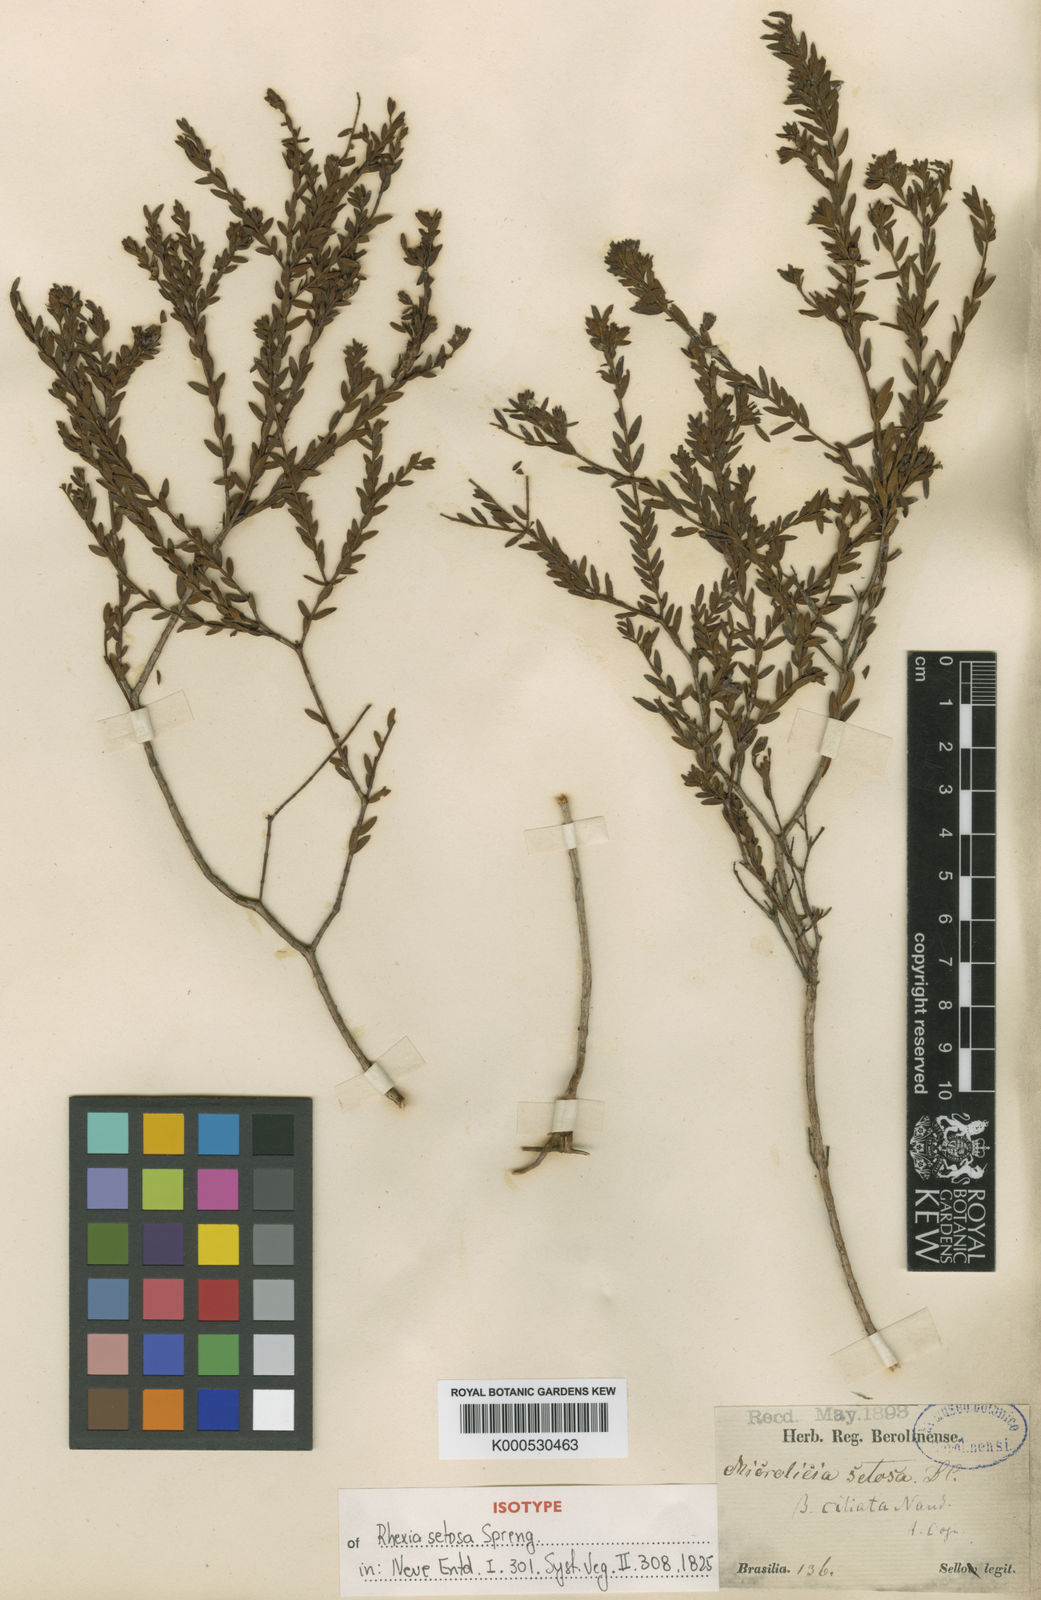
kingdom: Plantae
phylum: Tracheophyta
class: Magnoliopsida
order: Myrtales
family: Melastomataceae
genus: Microlicia
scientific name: Microlicia setosa
